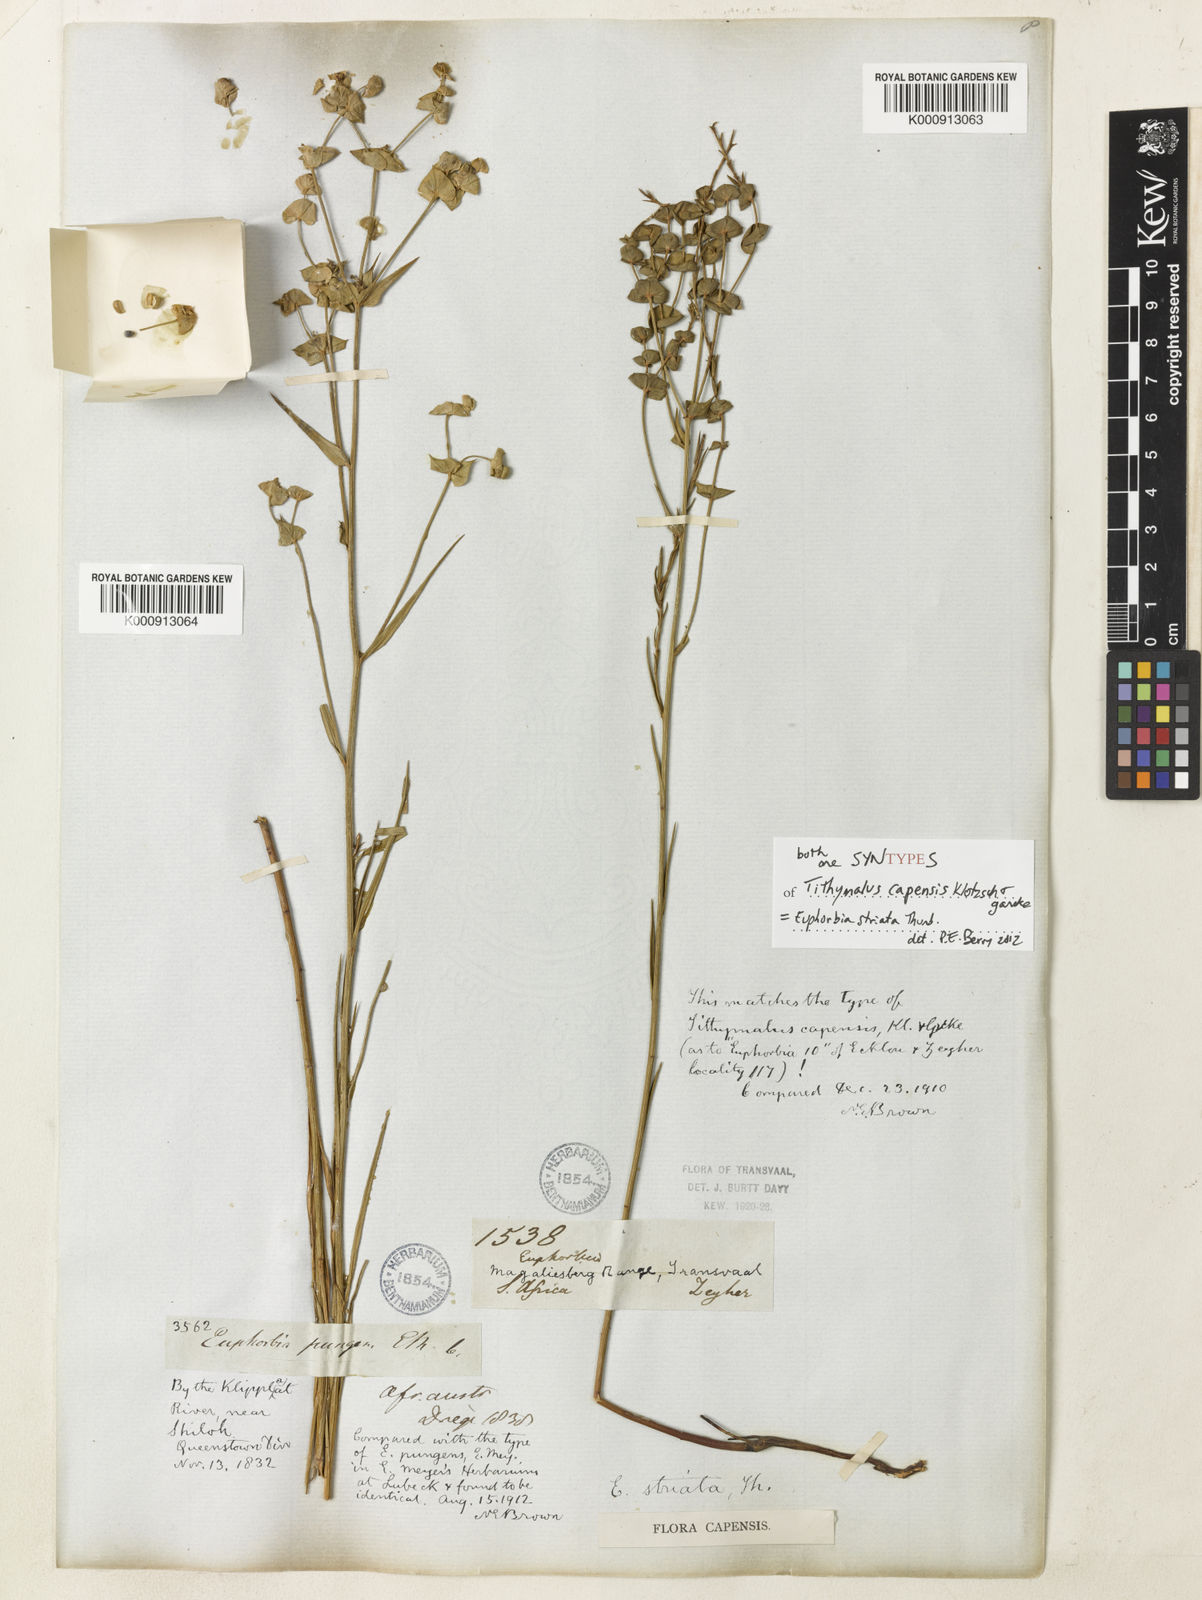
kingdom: Plantae
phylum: Tracheophyta
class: Magnoliopsida
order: Malpighiales
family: Euphorbiaceae
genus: Euphorbia
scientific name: Euphorbia striata
